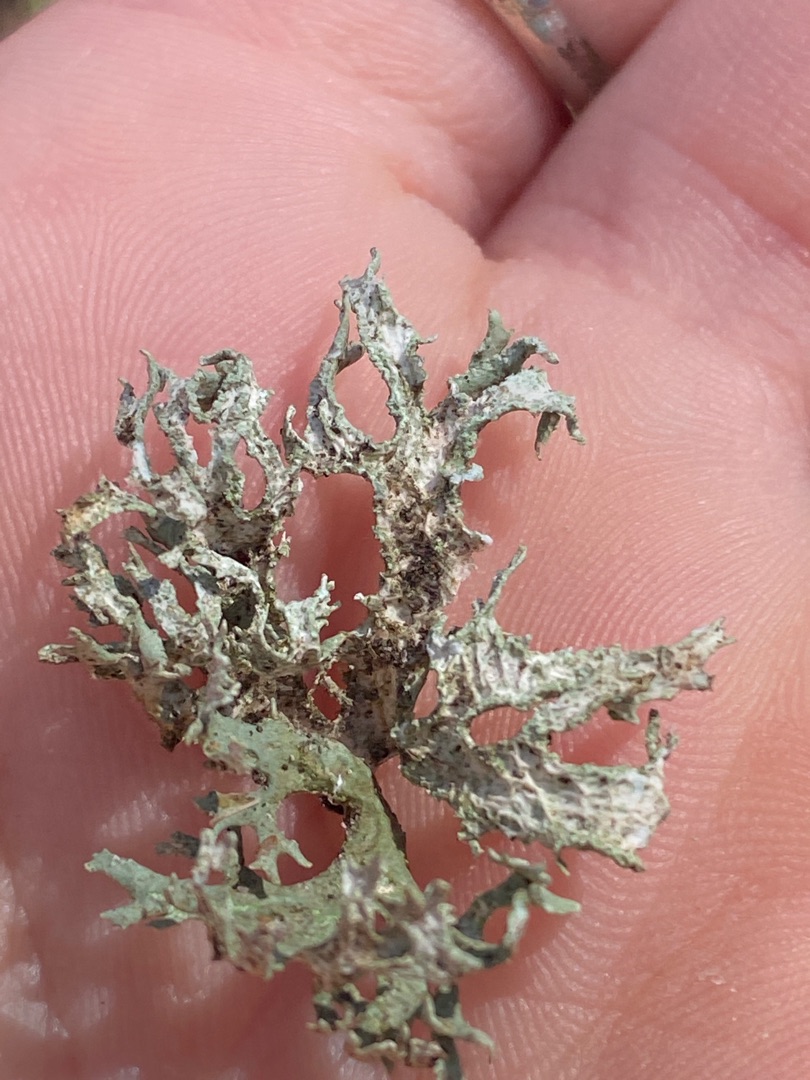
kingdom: Fungi
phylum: Ascomycota
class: Lecanoromycetes
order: Lecanorales
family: Parmeliaceae
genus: Evernia
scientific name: Evernia prunastri
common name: Almindelig slåenlav
